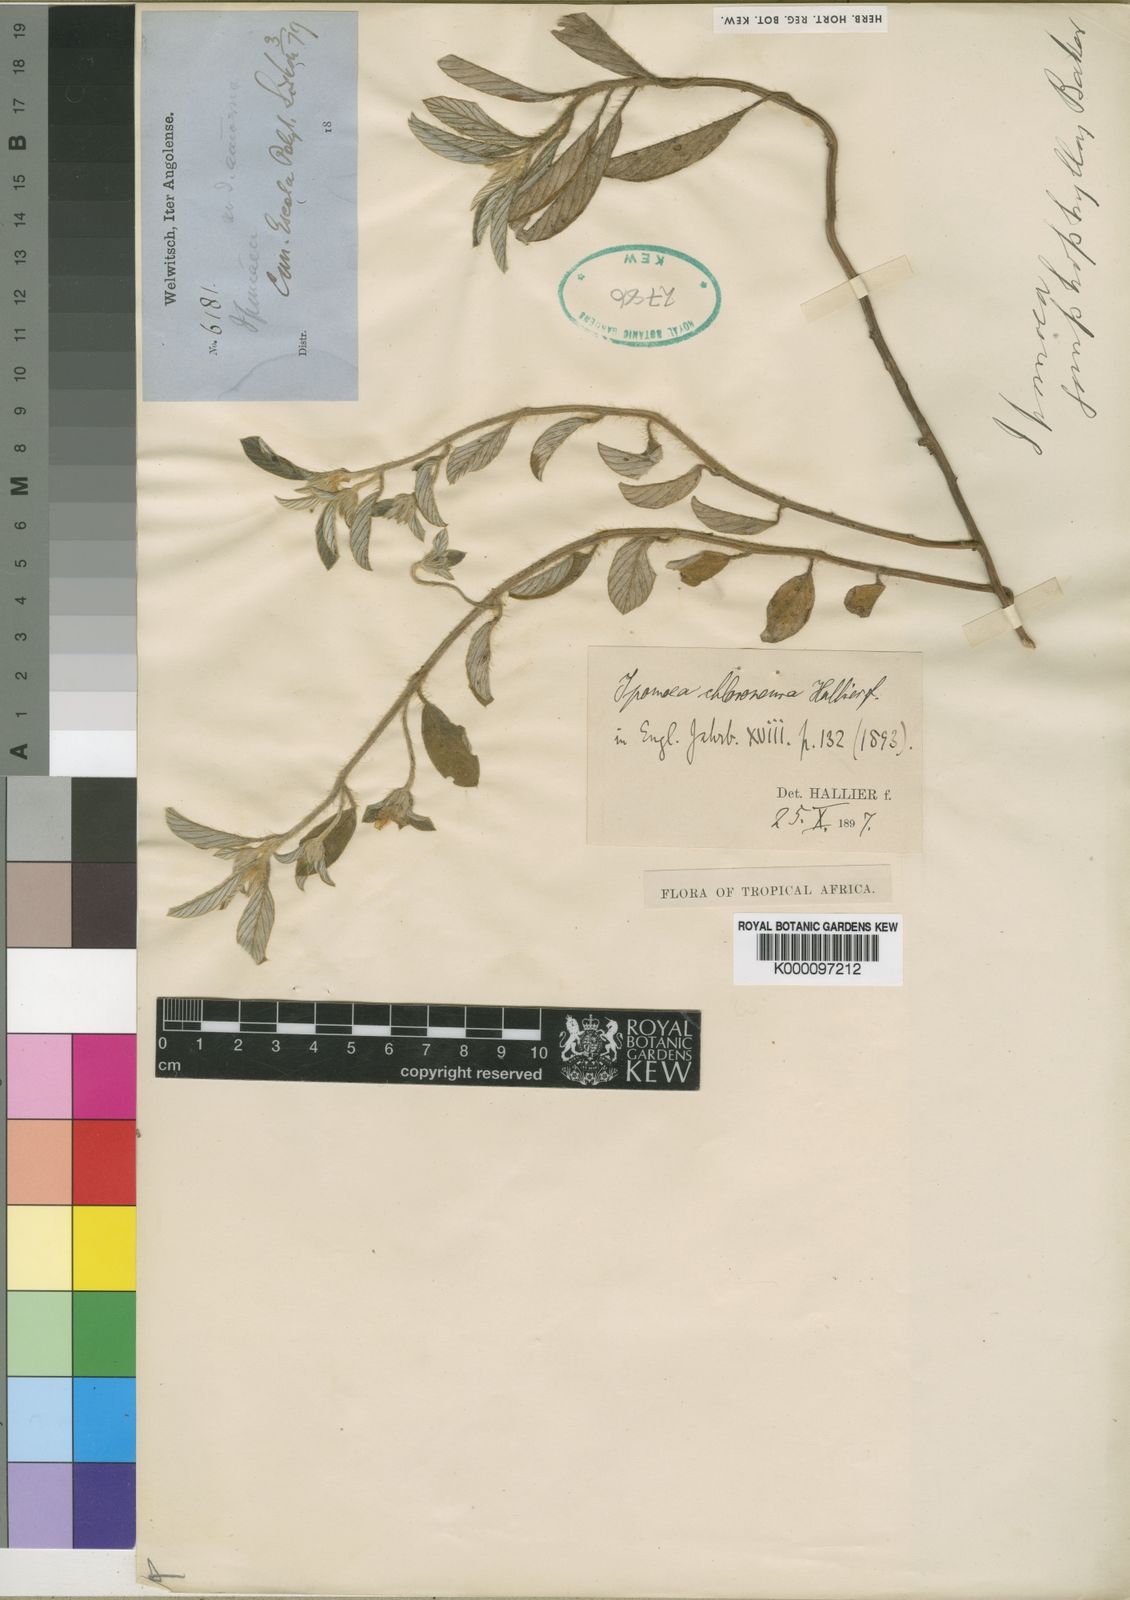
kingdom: Plantae
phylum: Tracheophyta
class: Magnoliopsida
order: Solanales
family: Convolvulaceae
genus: Ipomoea
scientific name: Ipomoea chloroneura
